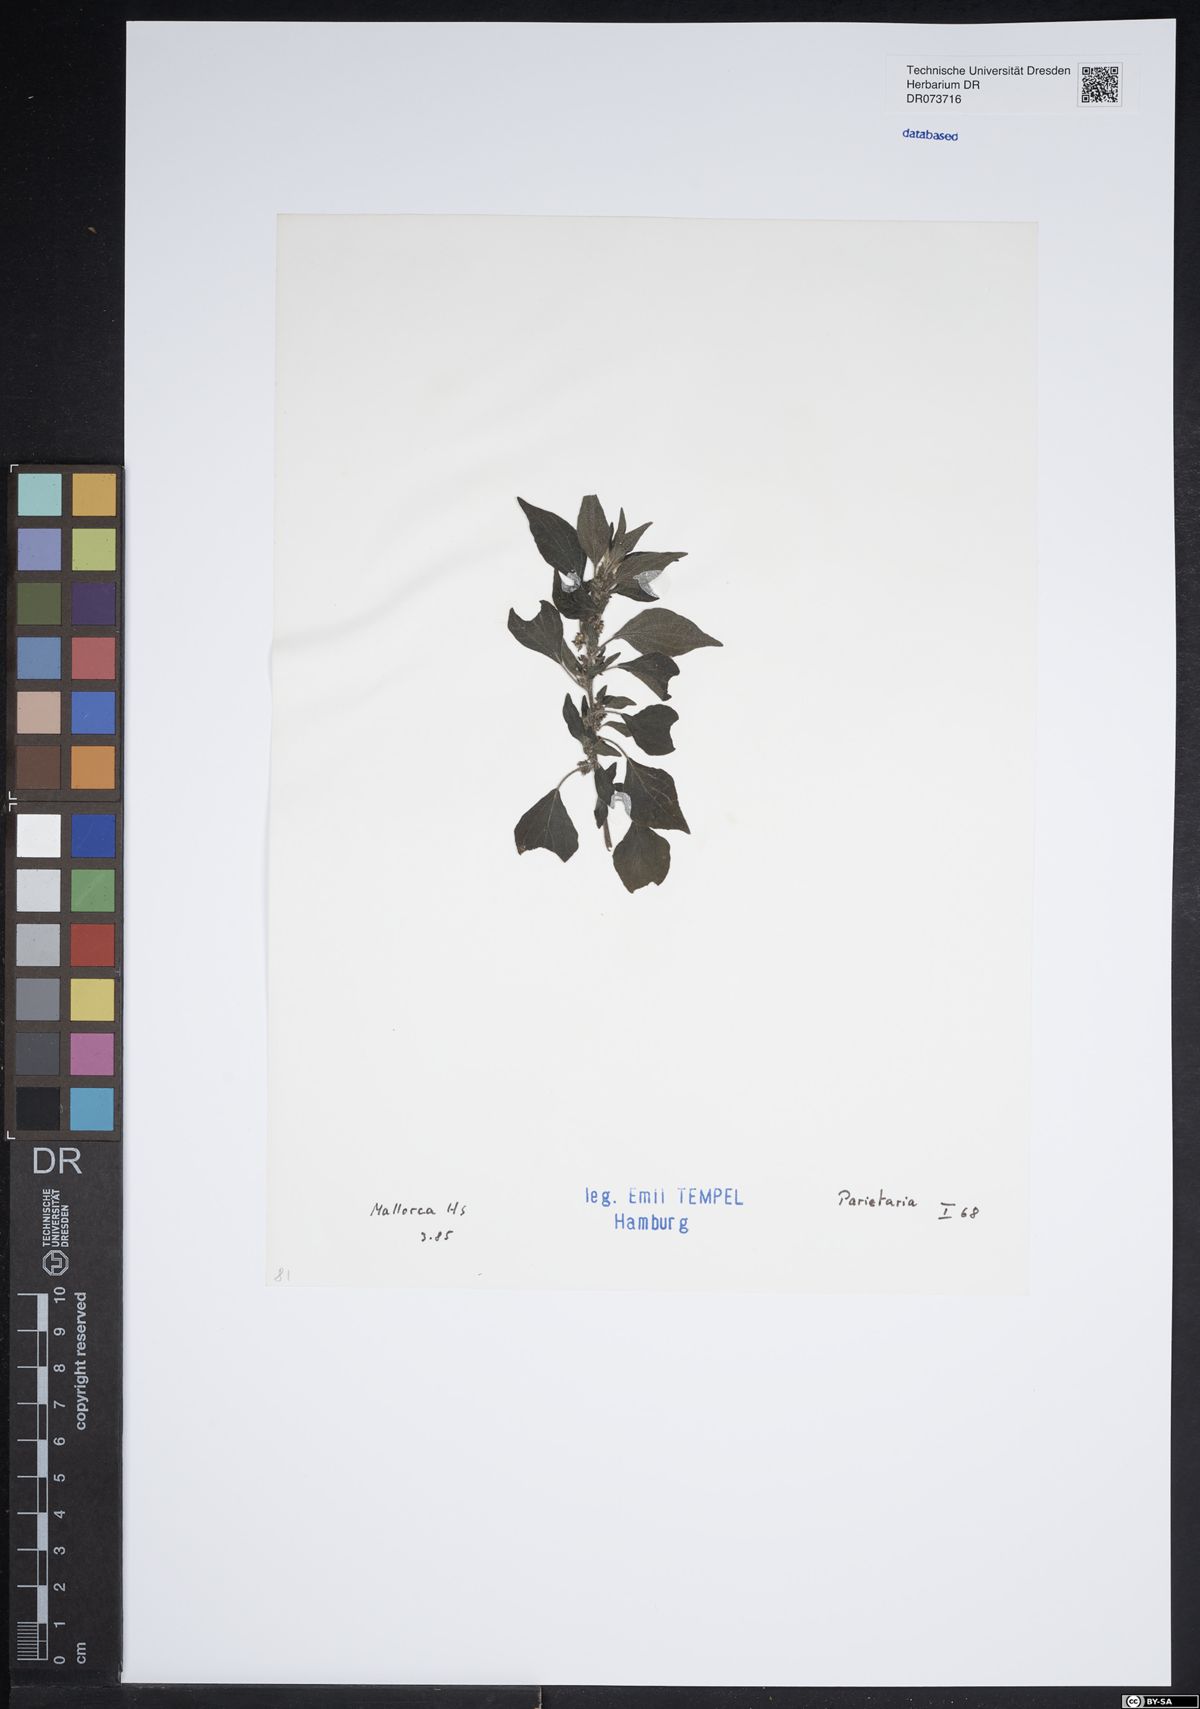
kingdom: Plantae
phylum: Tracheophyta
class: Magnoliopsida
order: Rosales
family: Urticaceae
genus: Parietaria
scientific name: Parietaria
